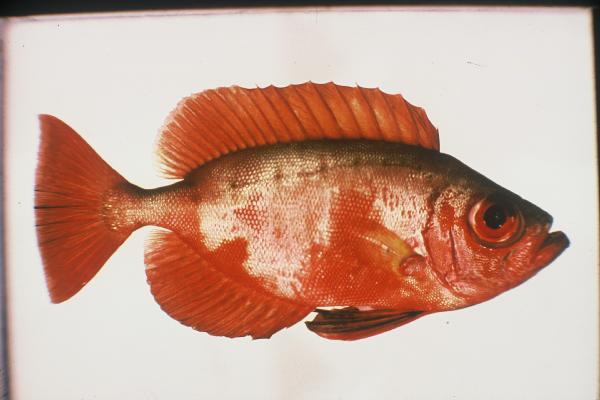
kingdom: Animalia
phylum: Chordata
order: Perciformes
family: Priacanthidae
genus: Priacanthus
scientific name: Priacanthus hamrur
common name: Moontail bullseye
